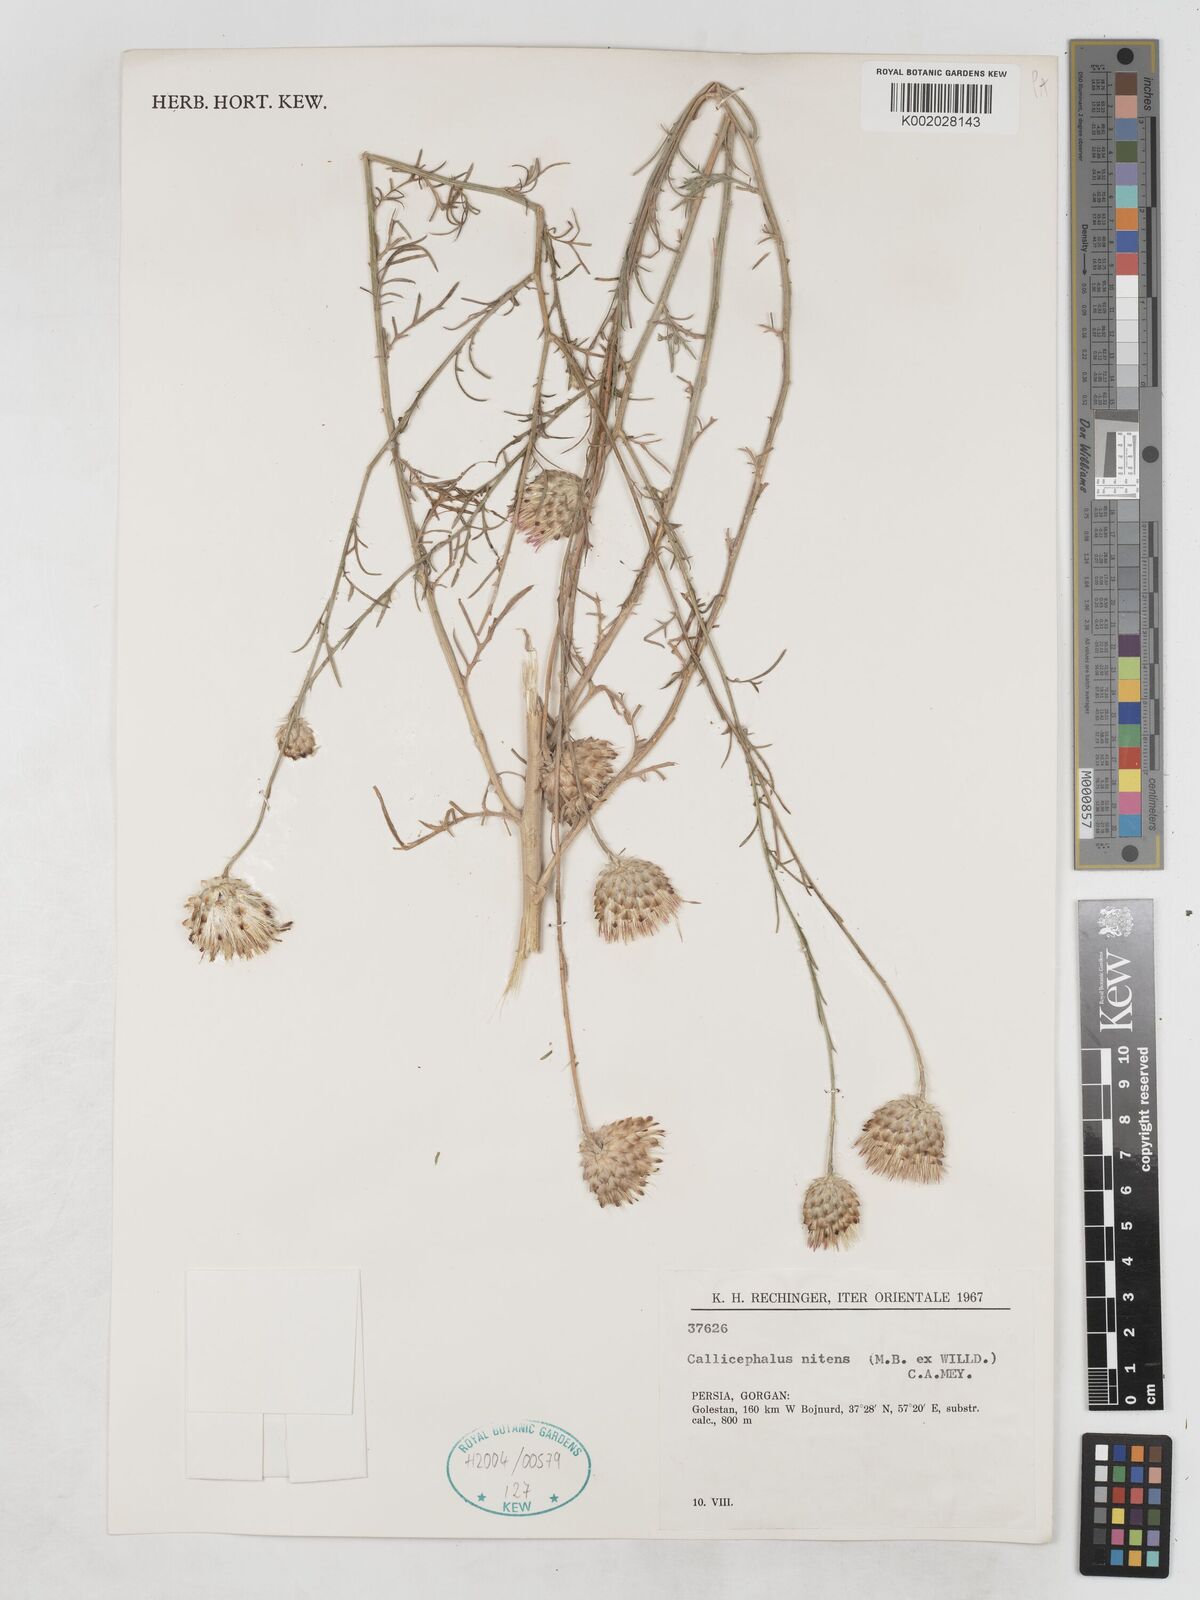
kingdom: Plantae
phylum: Tracheophyta
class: Magnoliopsida
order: Asterales
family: Asteraceae
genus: Callicephalus
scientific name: Callicephalus nitens
